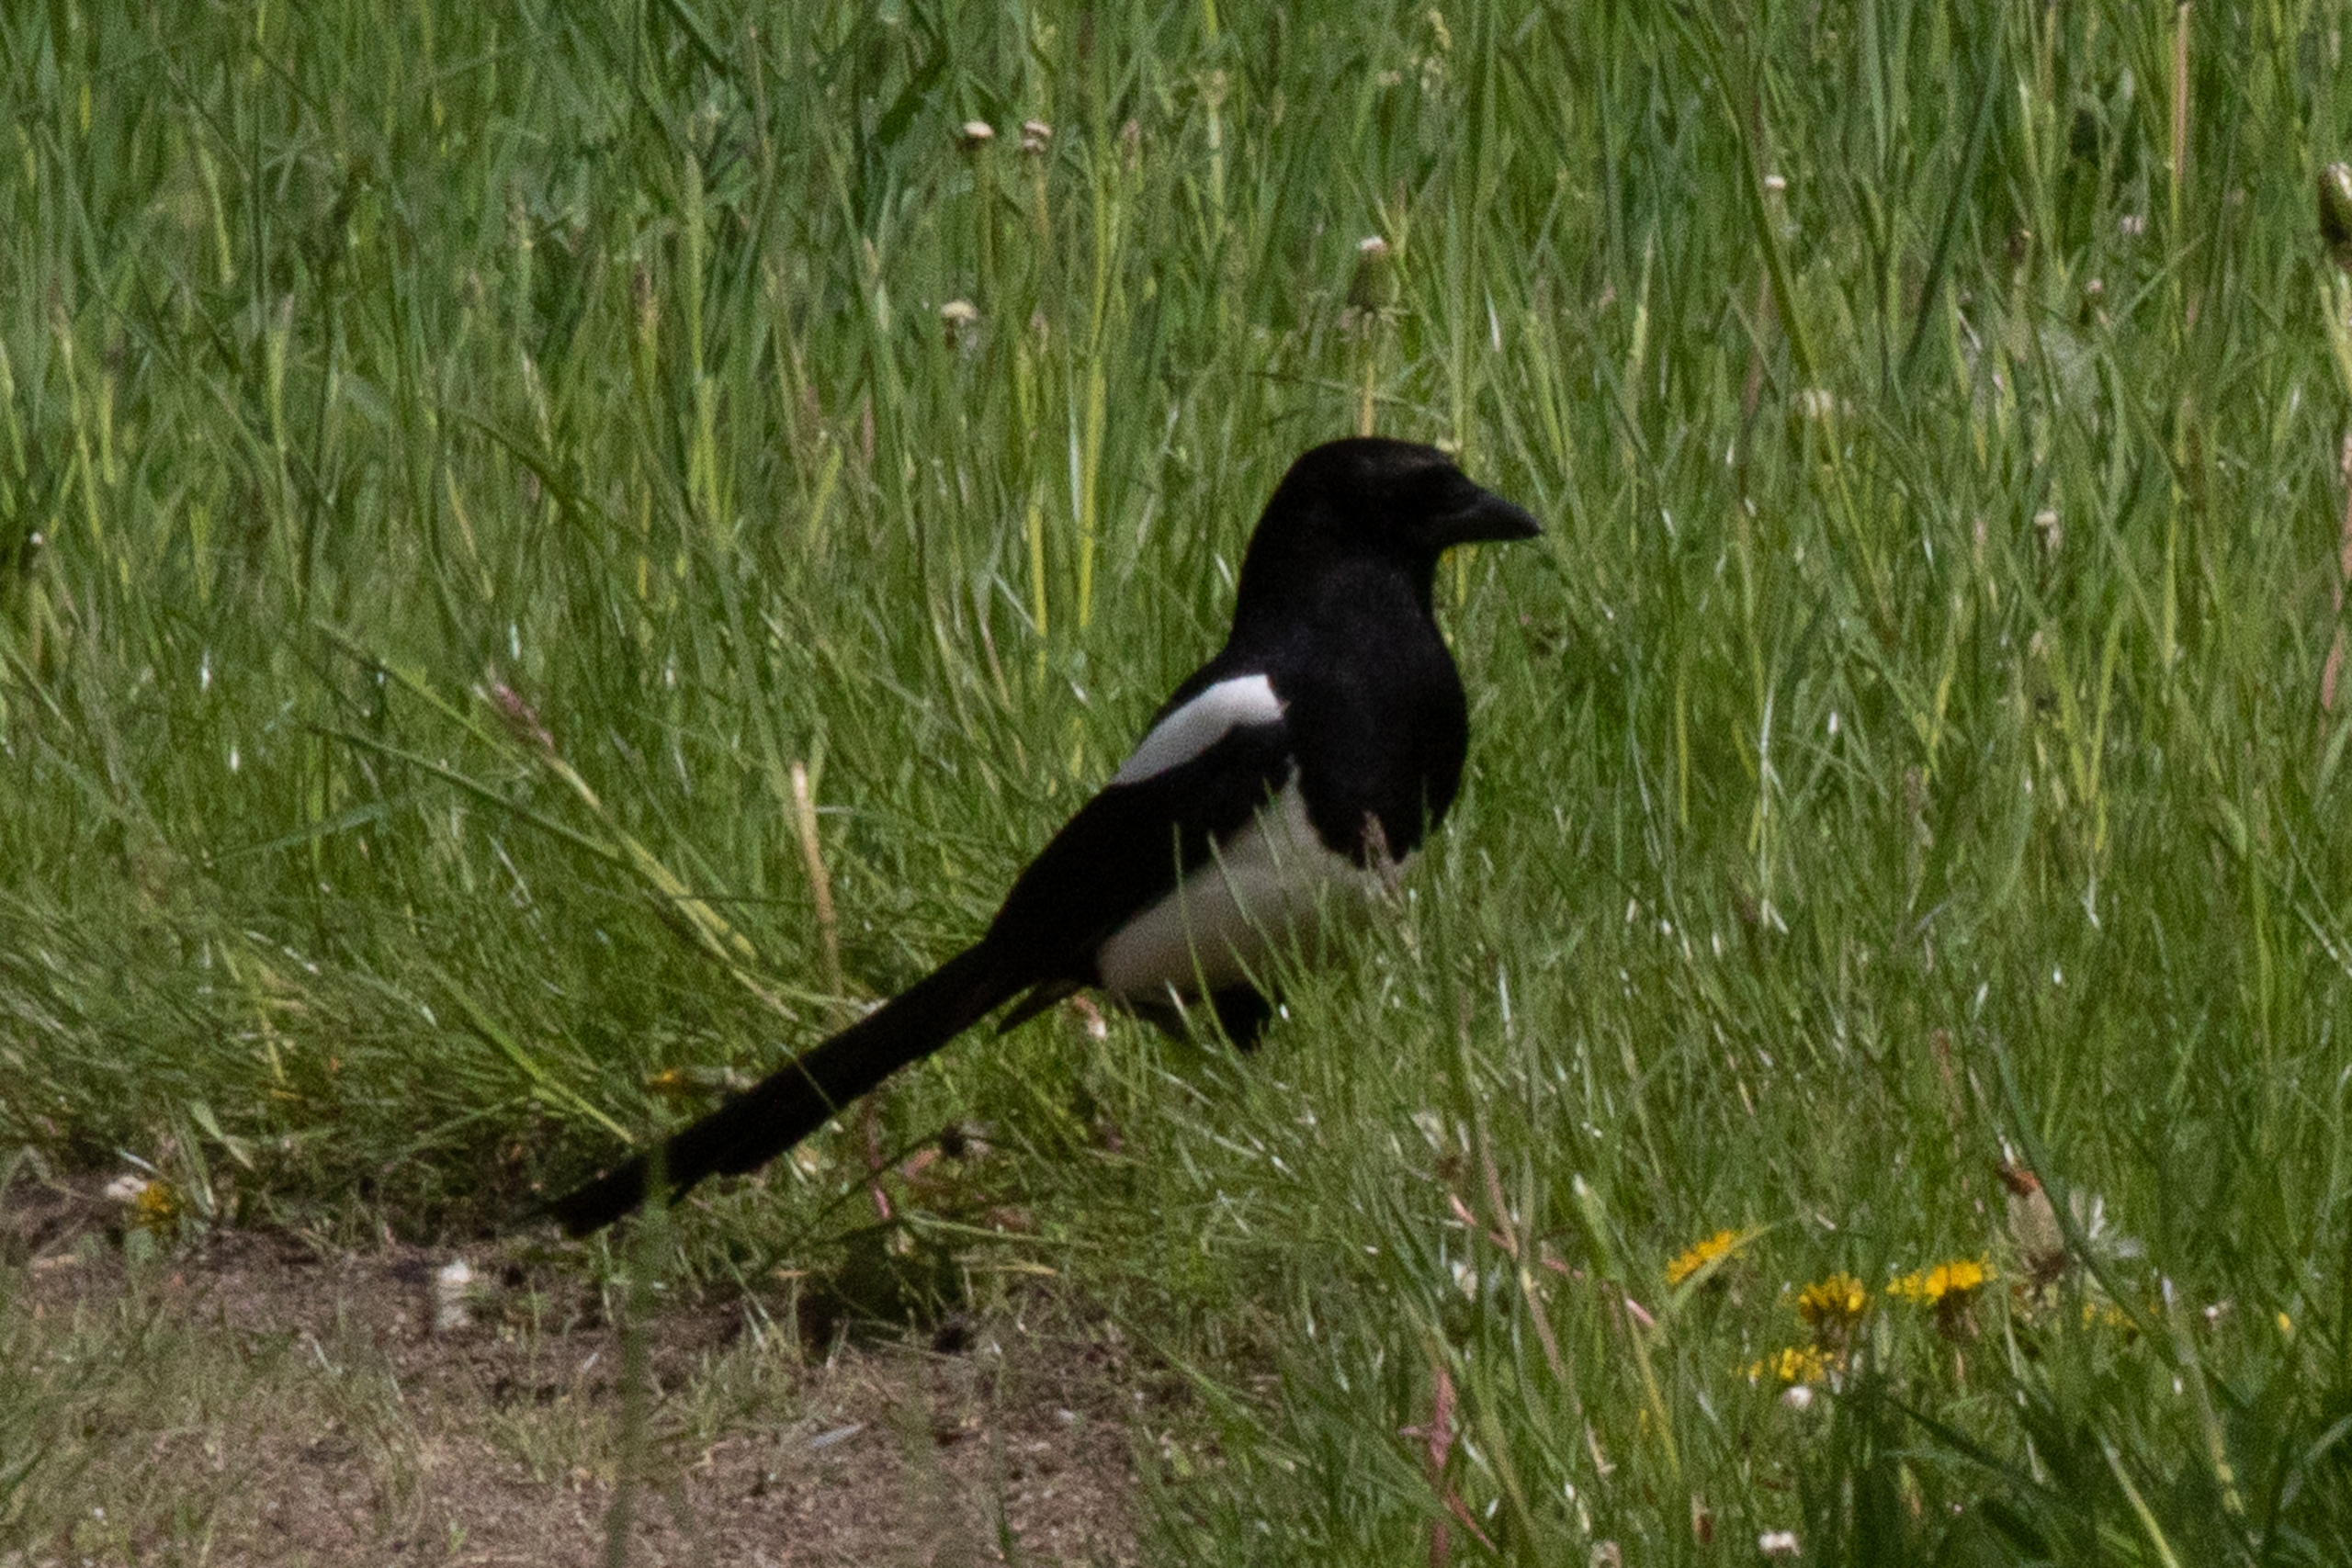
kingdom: Animalia
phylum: Chordata
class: Aves
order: Passeriformes
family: Corvidae
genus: Pica
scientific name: Pica pica
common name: Husskade
